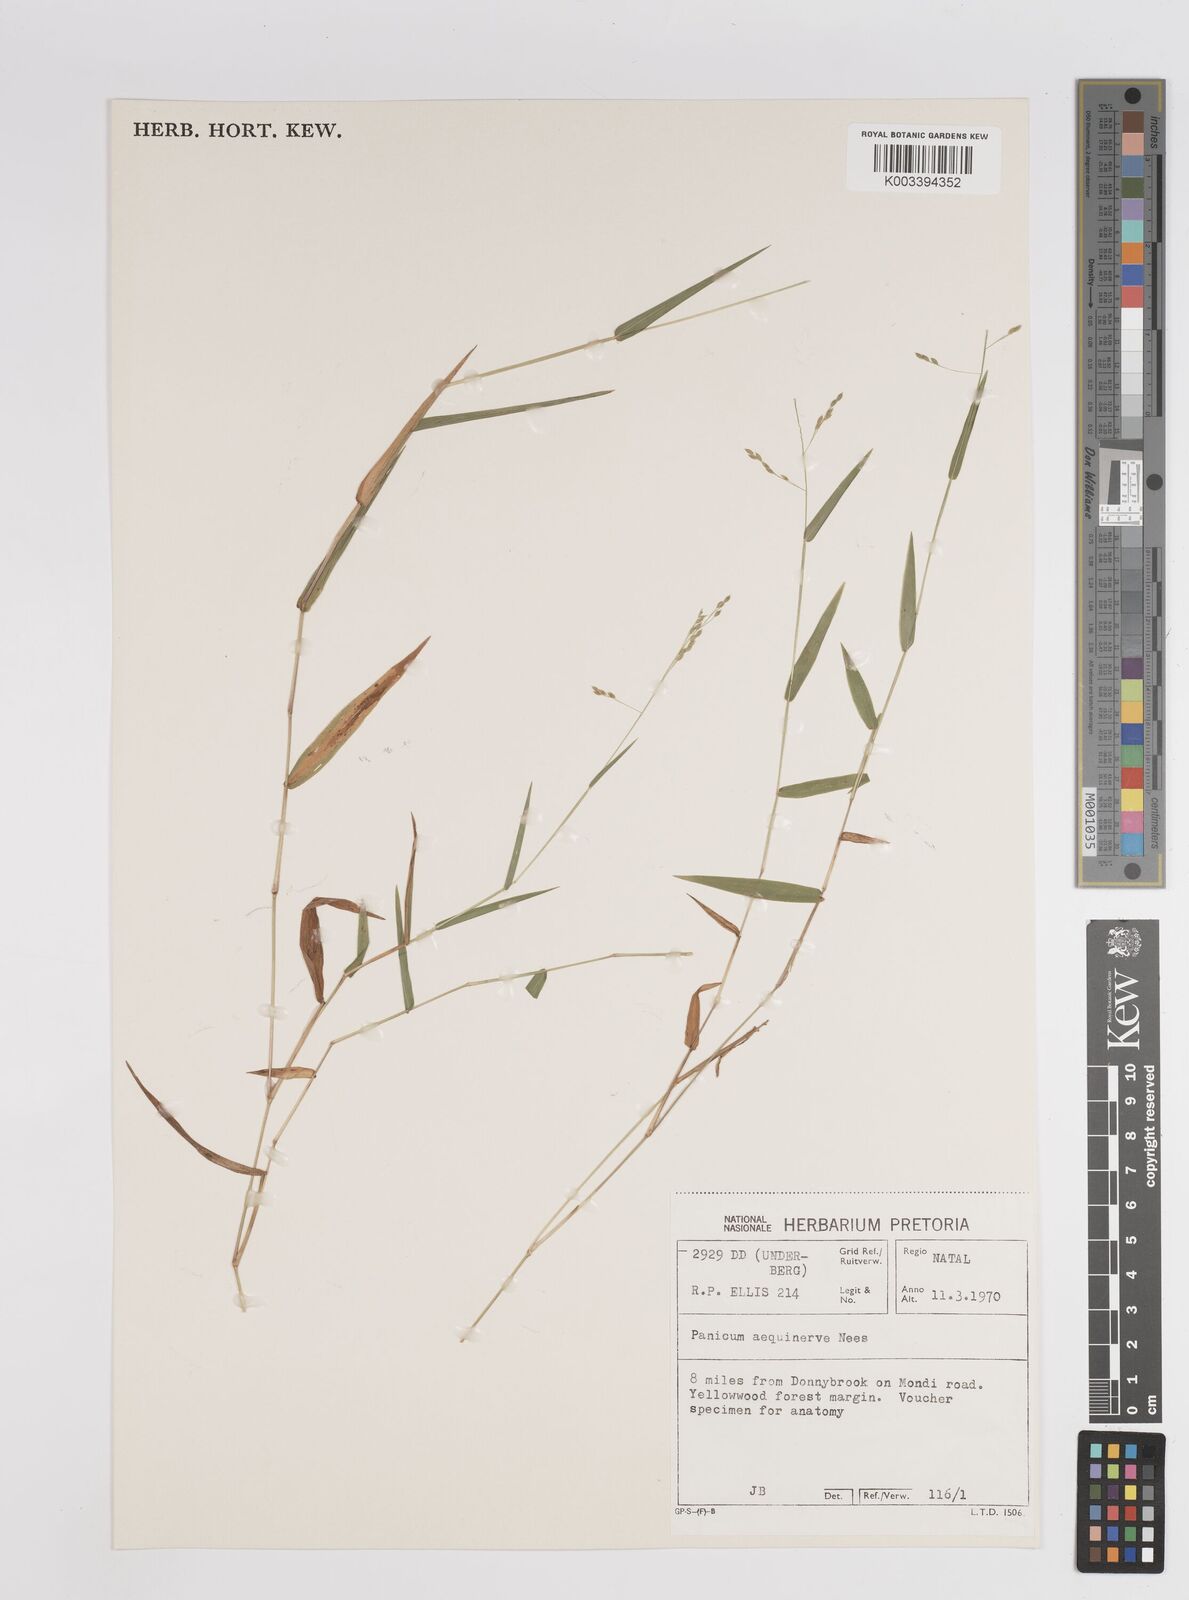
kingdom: Plantae
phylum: Tracheophyta
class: Liliopsida
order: Poales
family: Poaceae
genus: Panicum
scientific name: Panicum aequinerve
